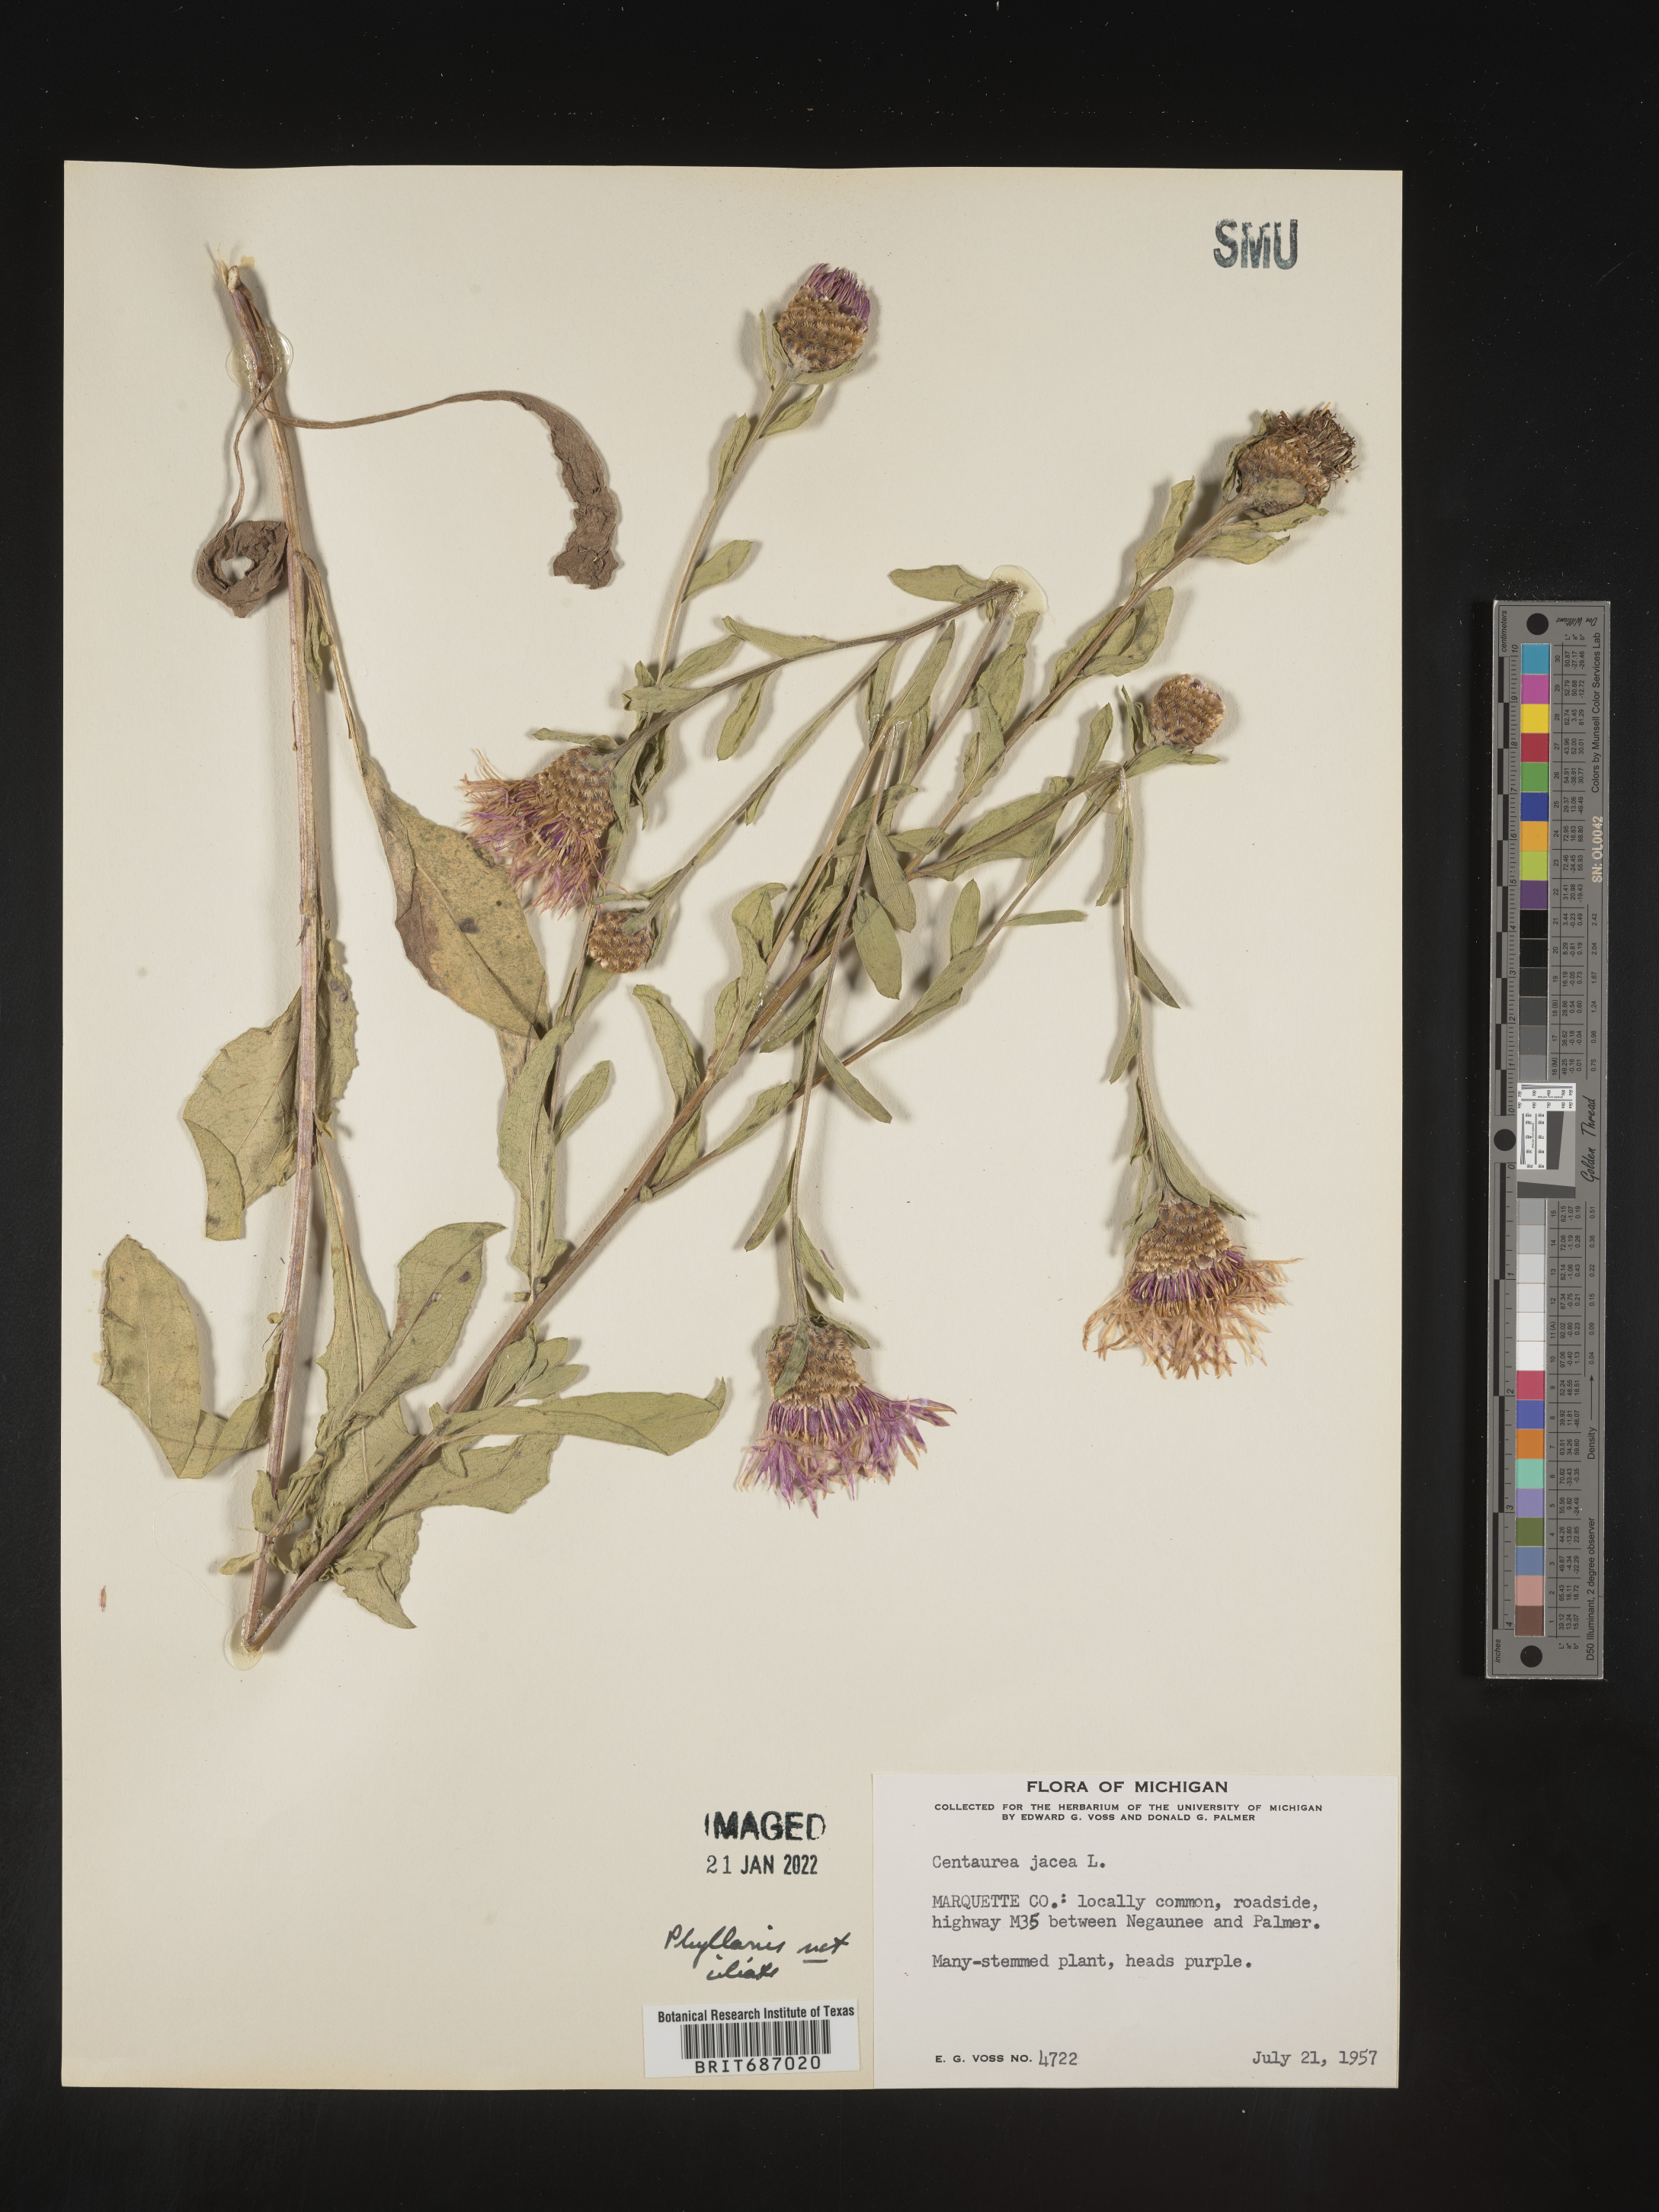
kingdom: Plantae
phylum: Tracheophyta
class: Magnoliopsida
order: Asterales
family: Asteraceae
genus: Centaurea
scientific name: Centaurea jacea
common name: Brown knapweed
